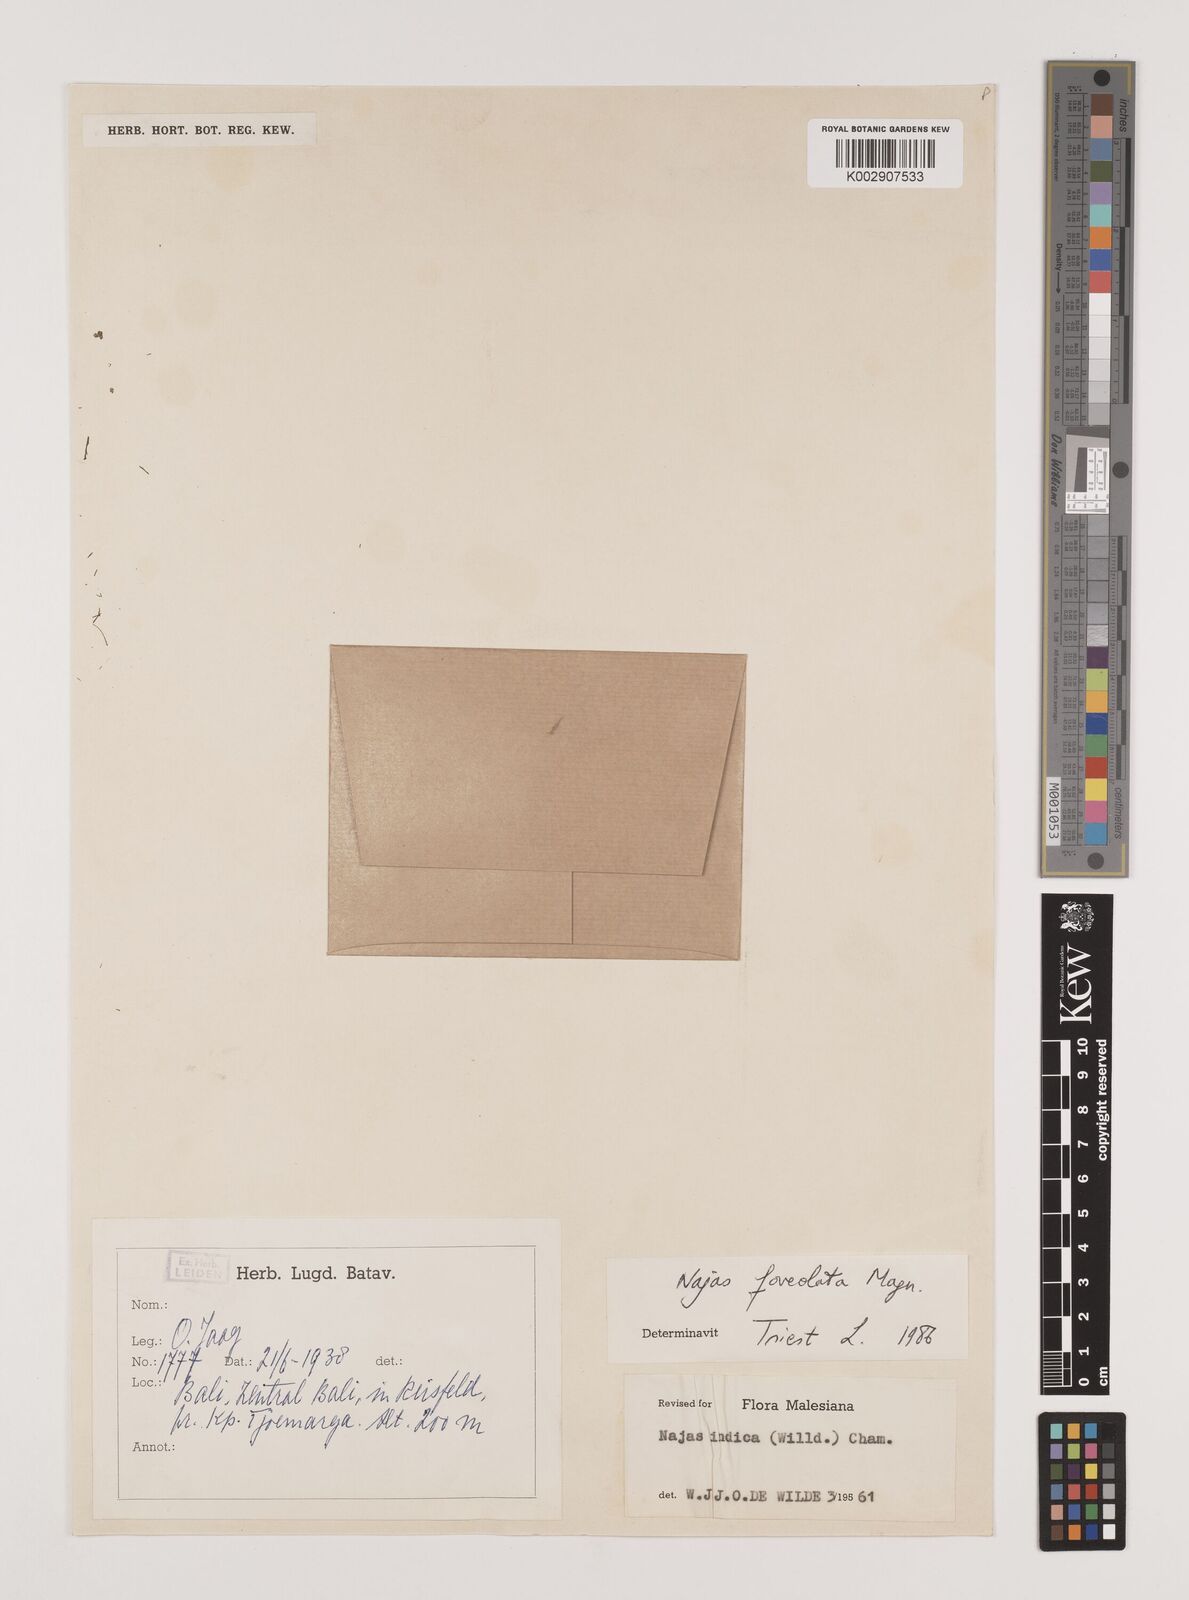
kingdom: Plantae
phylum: Tracheophyta
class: Liliopsida
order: Alismatales
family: Hydrocharitaceae
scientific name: Hydrocharitaceae
